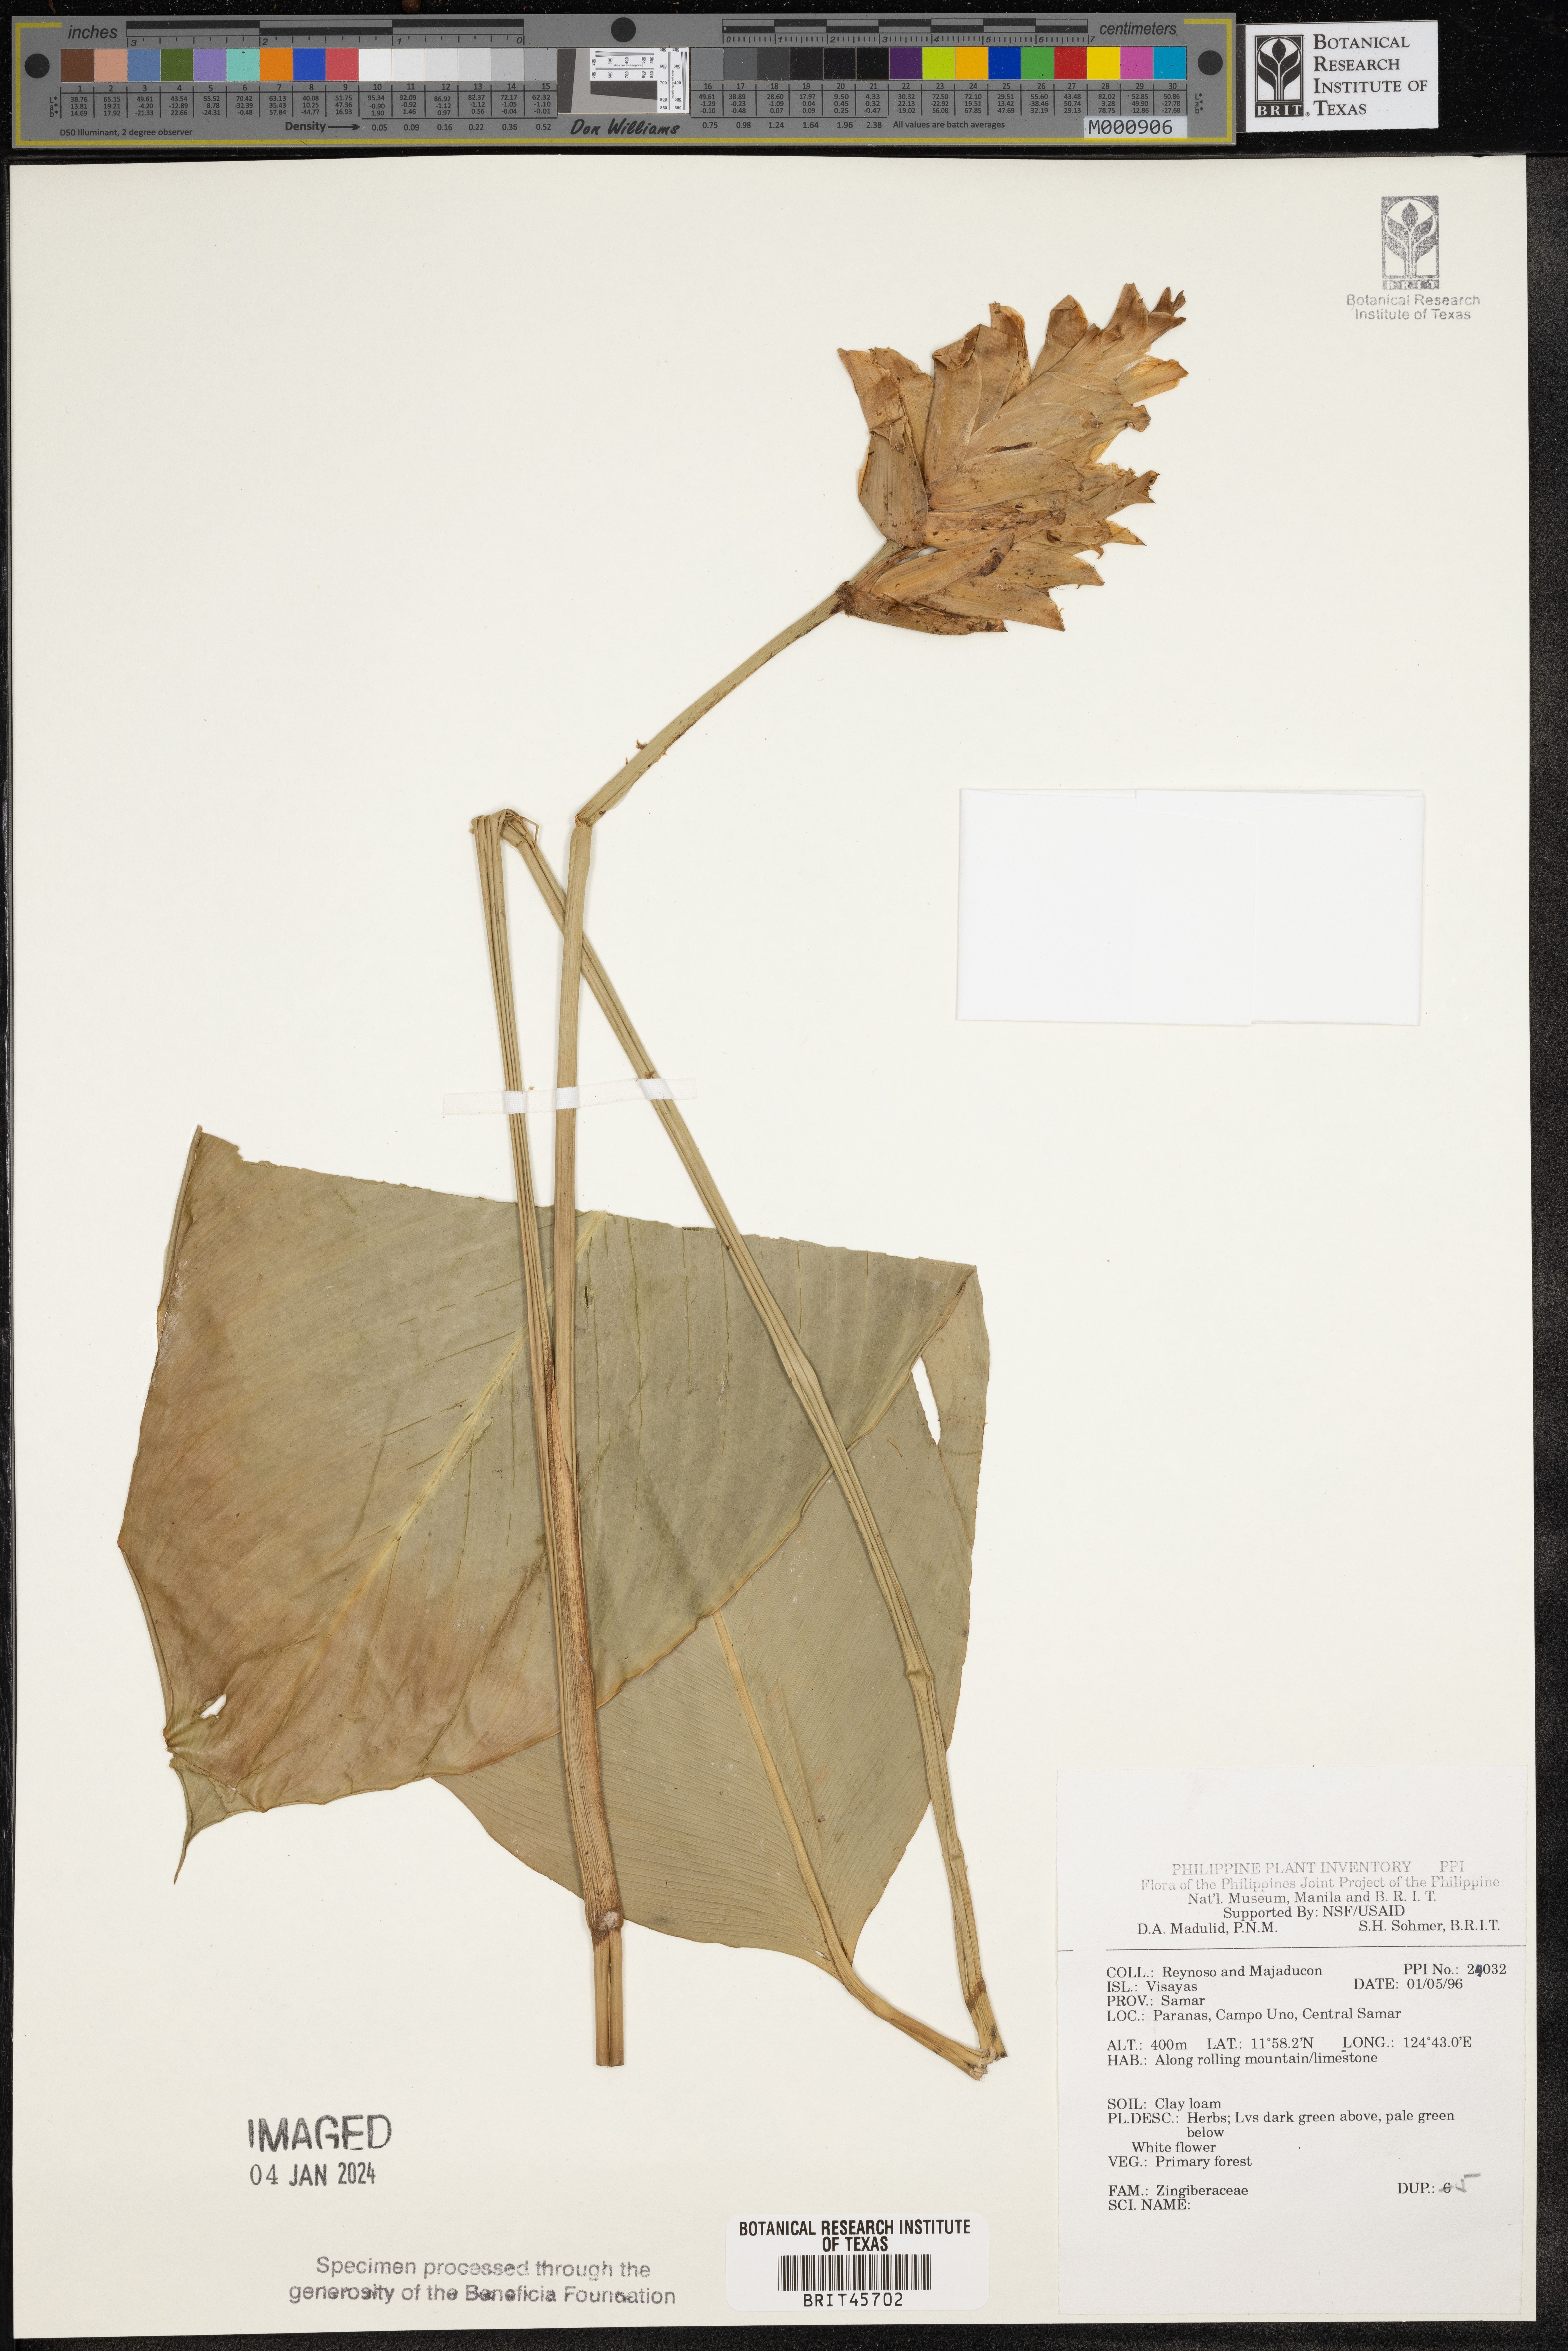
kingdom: Plantae
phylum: Tracheophyta
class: Liliopsida
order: Zingiberales
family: Zingiberaceae
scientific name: Zingiberaceae
